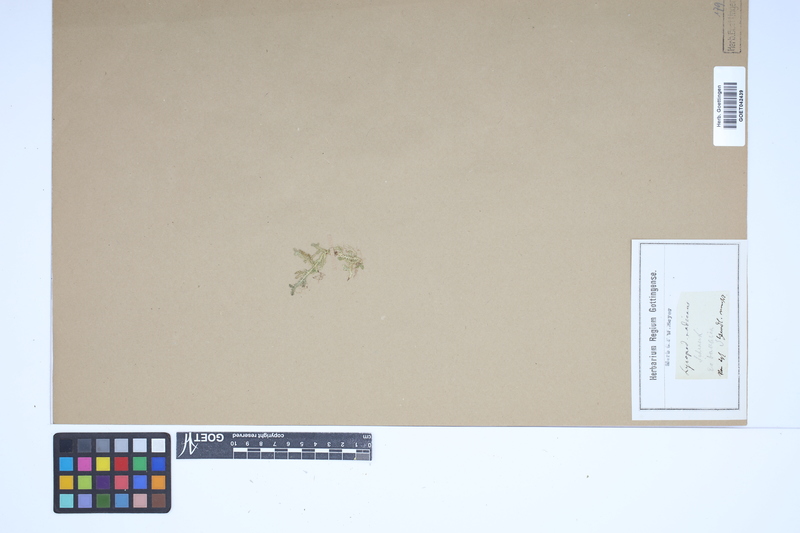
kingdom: Plantae
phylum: Tracheophyta
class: Lycopodiopsida
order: Selaginellales
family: Selaginellaceae
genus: Selaginella
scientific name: Selaginella helvetica
